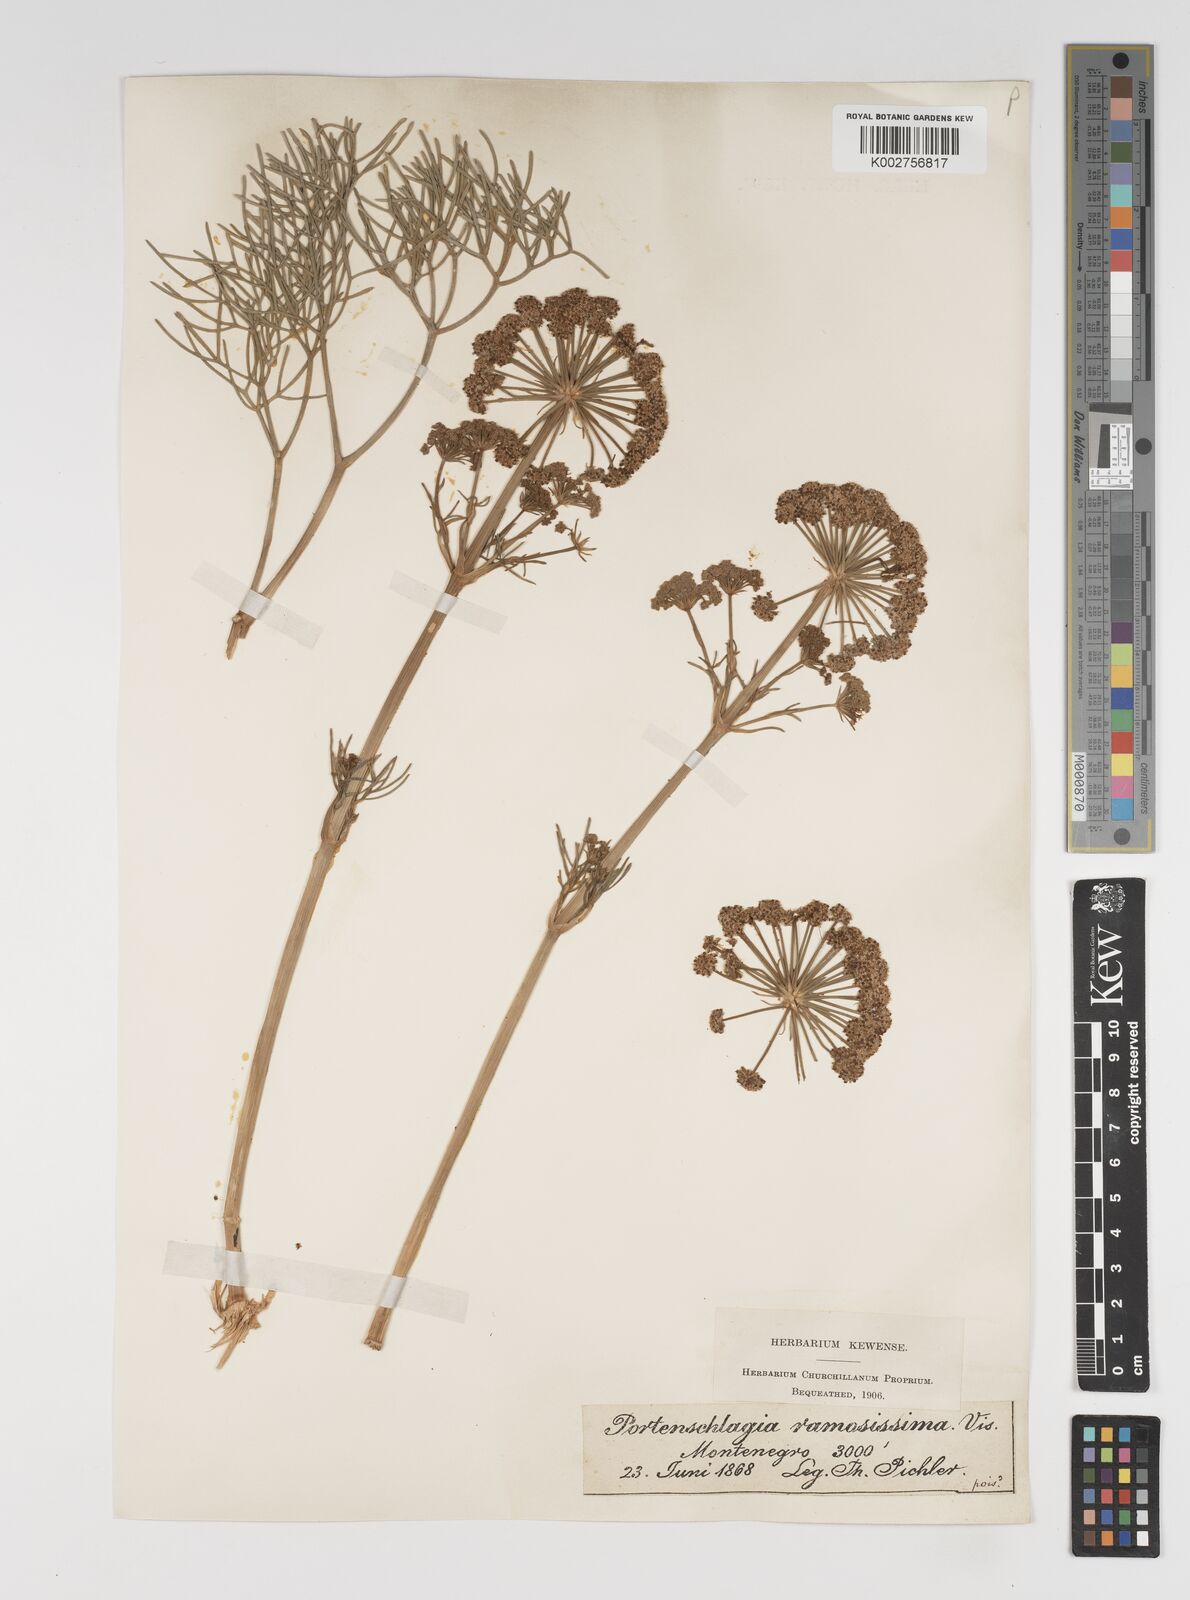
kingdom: Plantae
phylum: Tracheophyta
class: Magnoliopsida
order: Apiales
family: Apiaceae
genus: Athamanta
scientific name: Athamanta ramosissima
